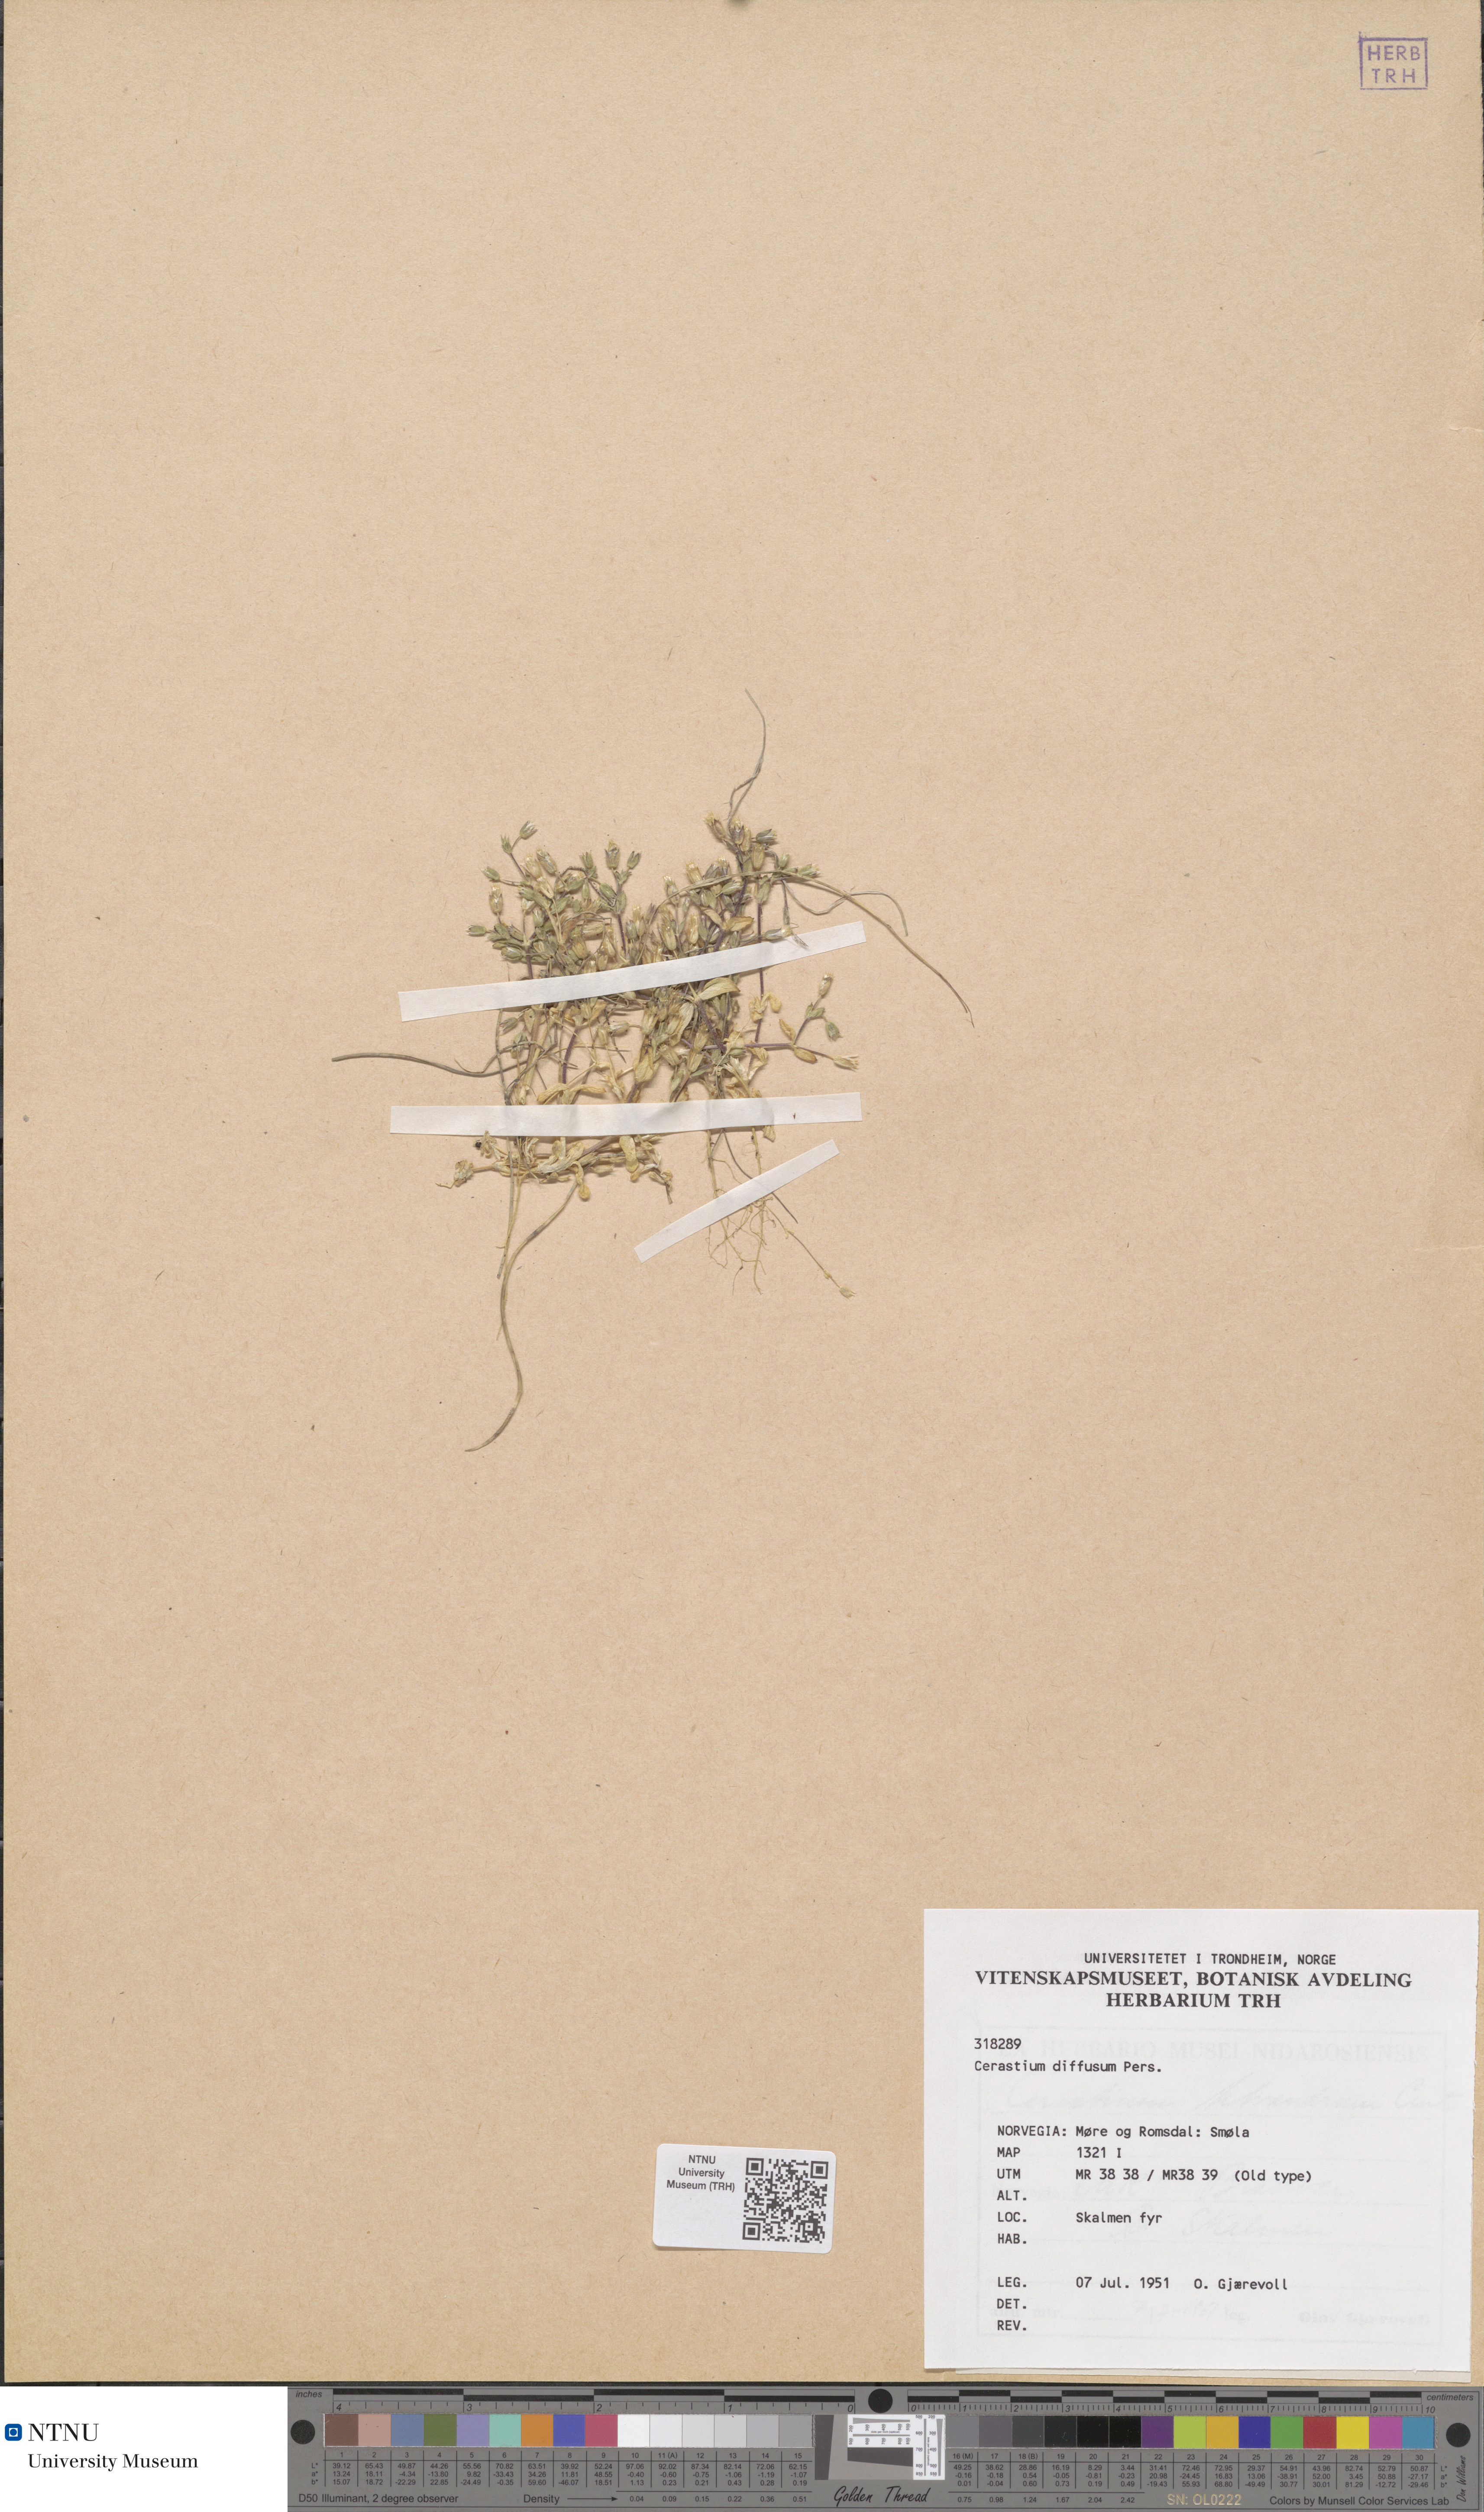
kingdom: Plantae
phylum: Tracheophyta
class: Magnoliopsida
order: Caryophyllales
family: Caryophyllaceae
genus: Cerastium
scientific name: Cerastium diffusum
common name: Fourstamen chickweed
